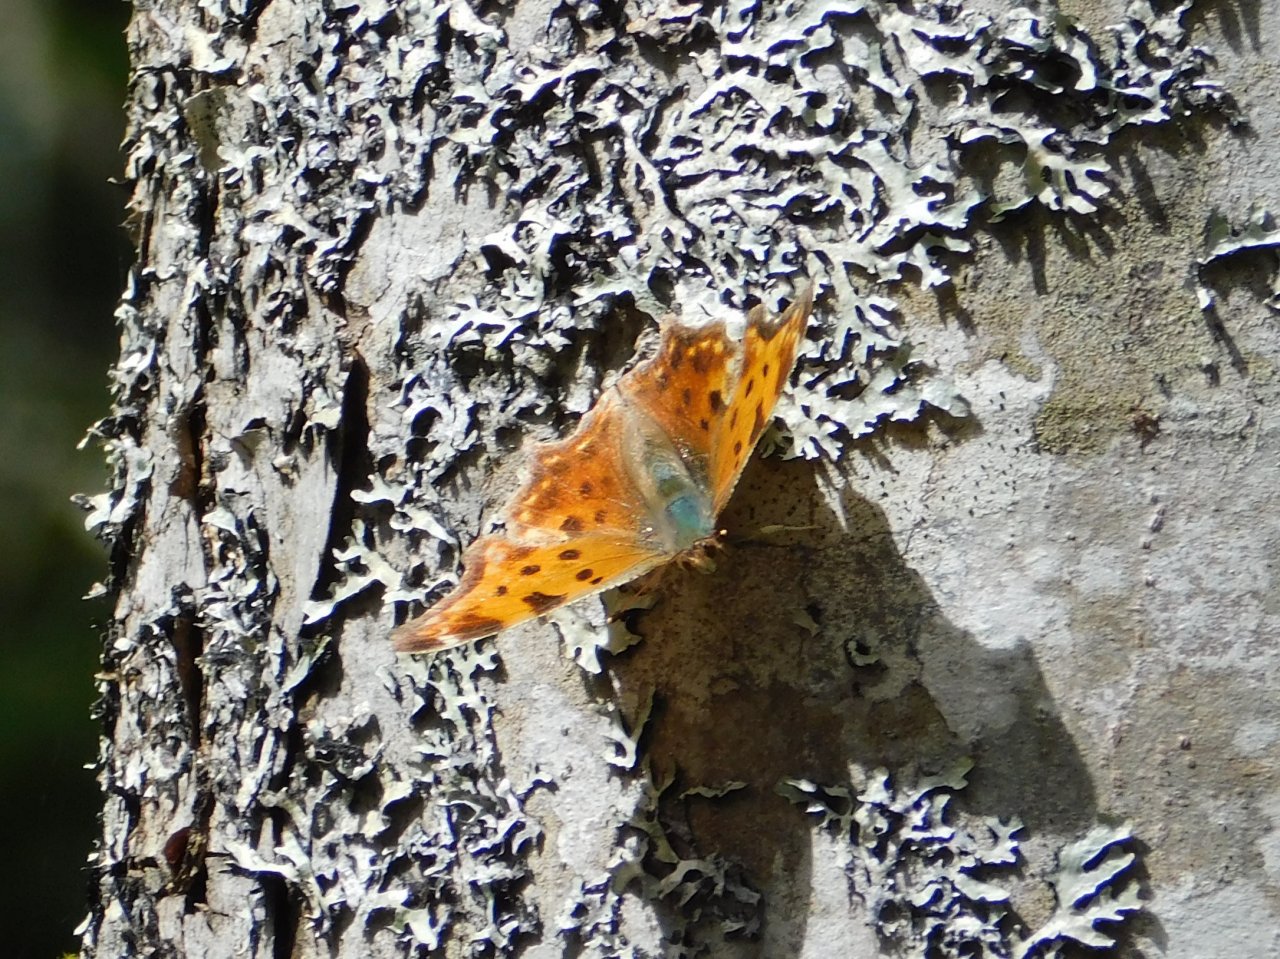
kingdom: Animalia
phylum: Arthropoda
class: Insecta
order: Lepidoptera
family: Nymphalidae
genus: Polygonia
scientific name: Polygonia comma
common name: Eastern Comma
